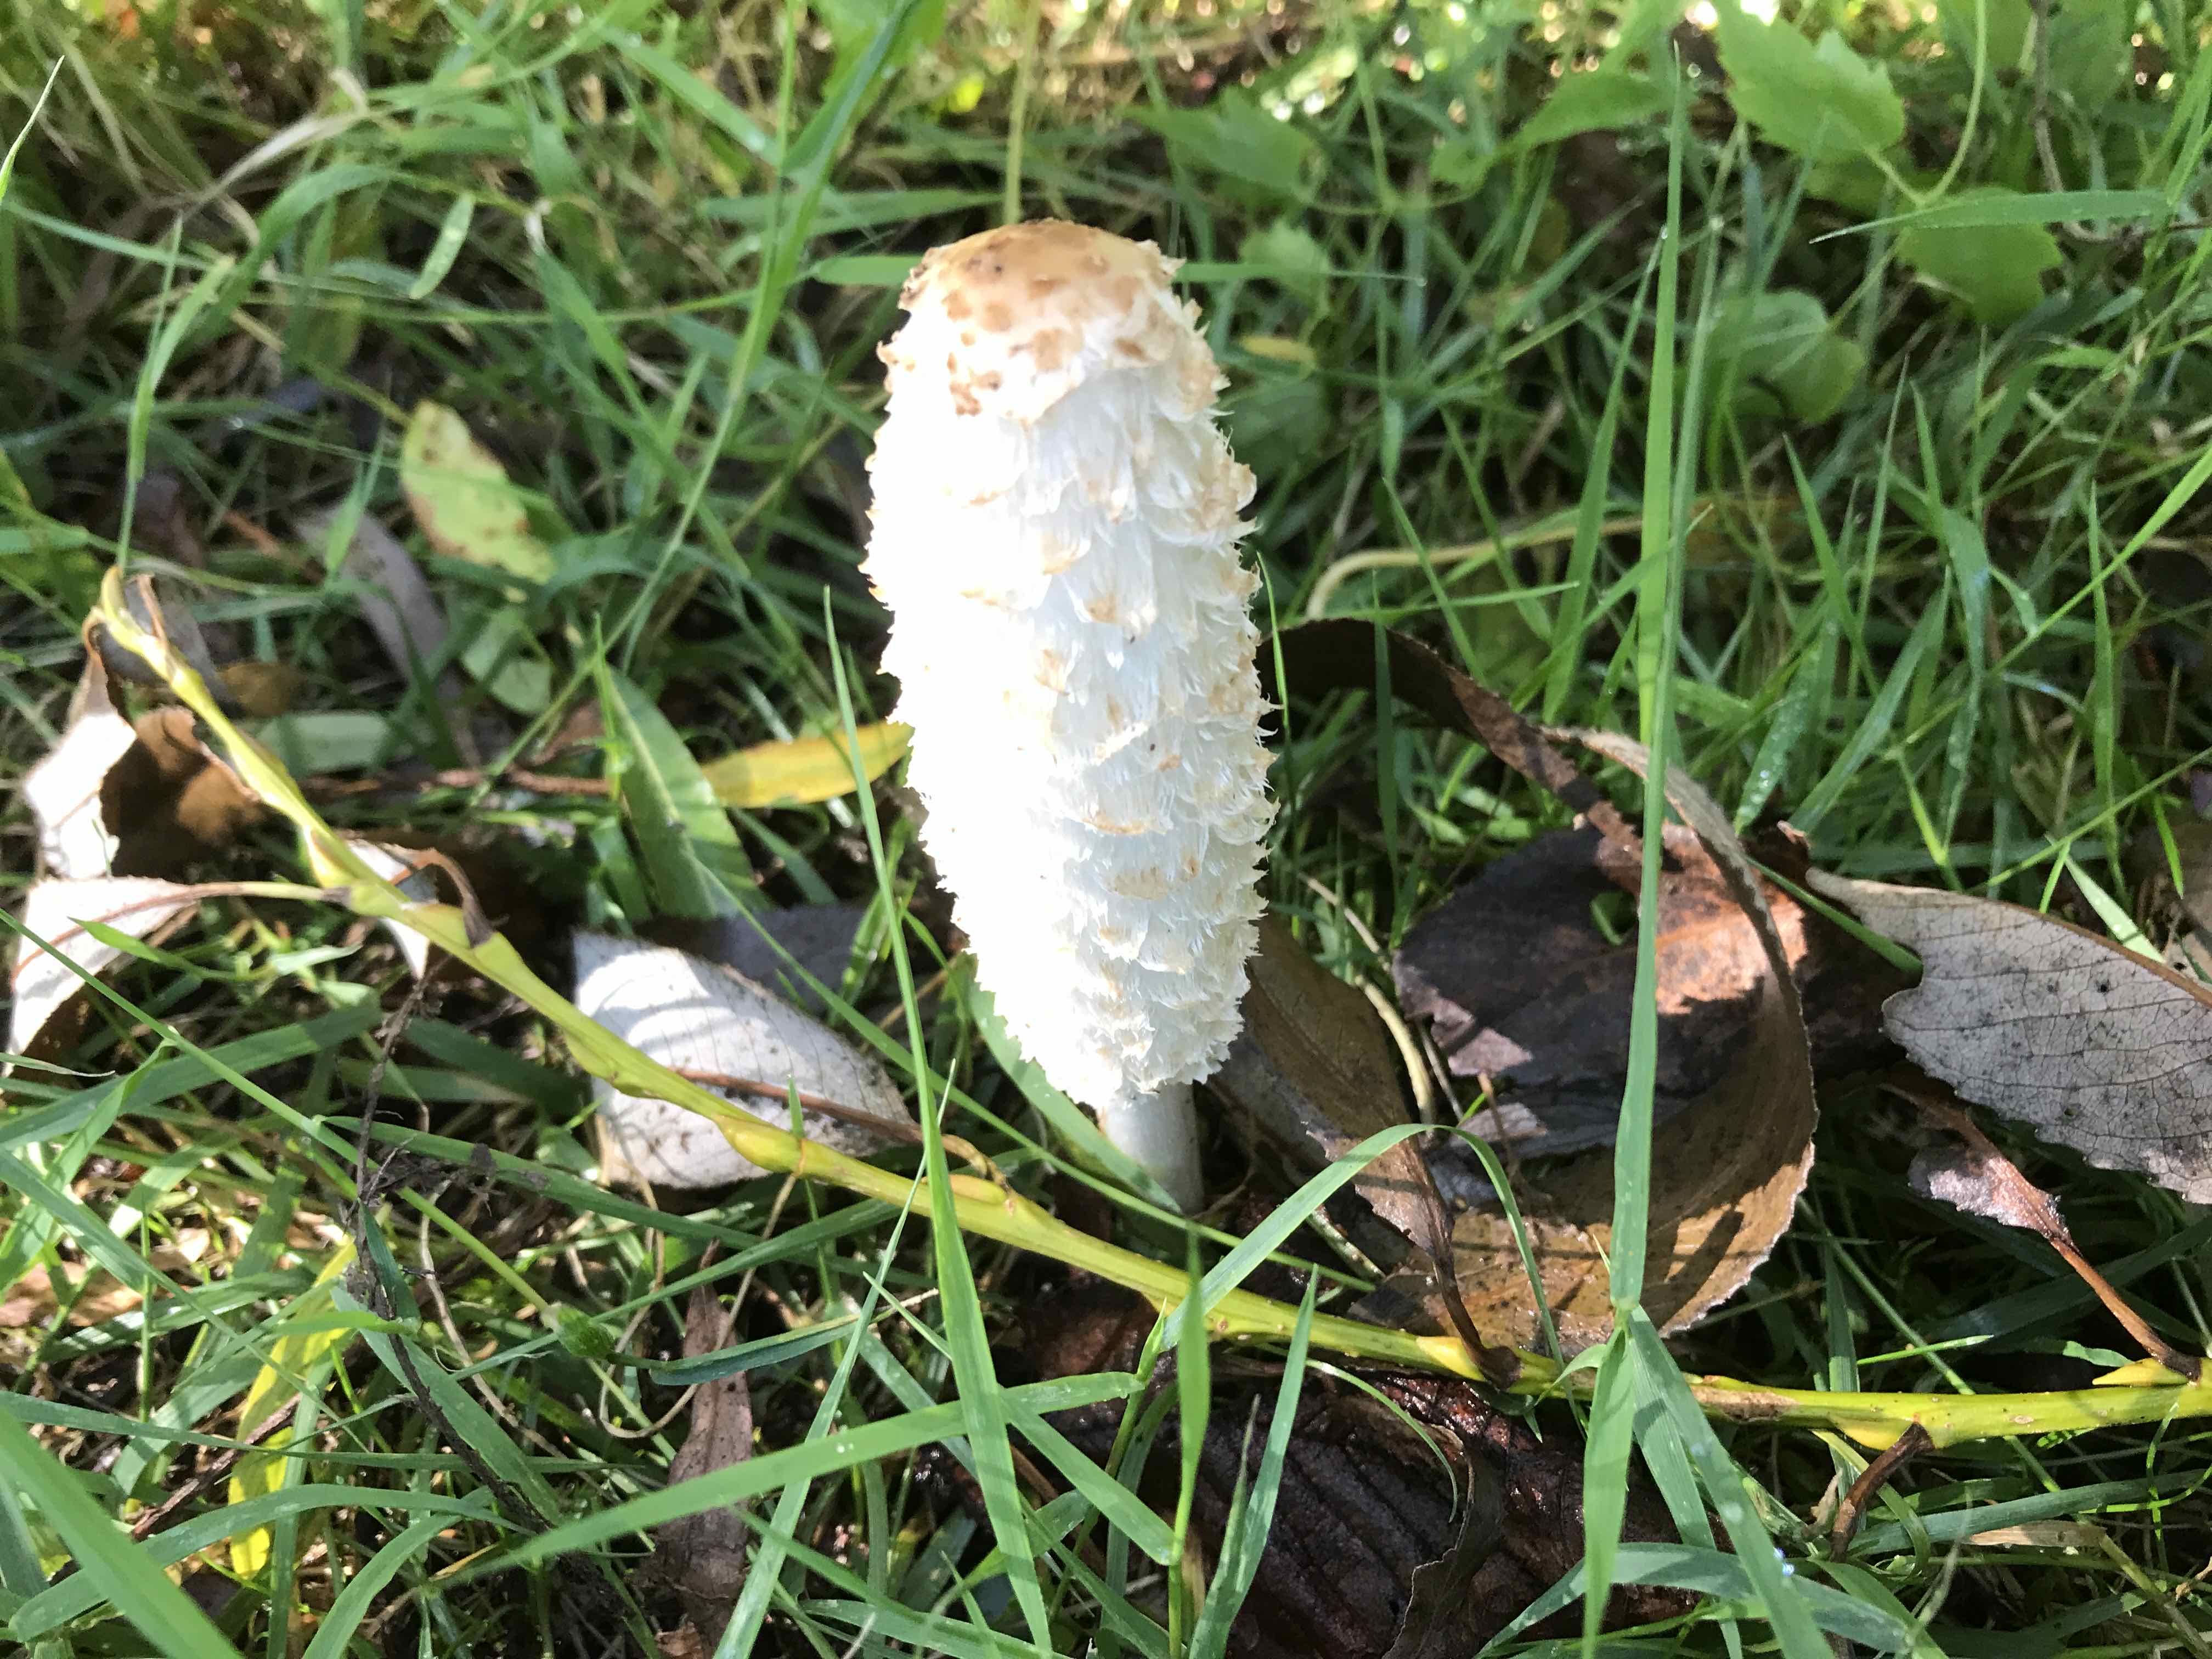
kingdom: Fungi
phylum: Basidiomycota
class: Agaricomycetes
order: Agaricales
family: Agaricaceae
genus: Coprinus
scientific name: Coprinus comatus
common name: stor parykhat
